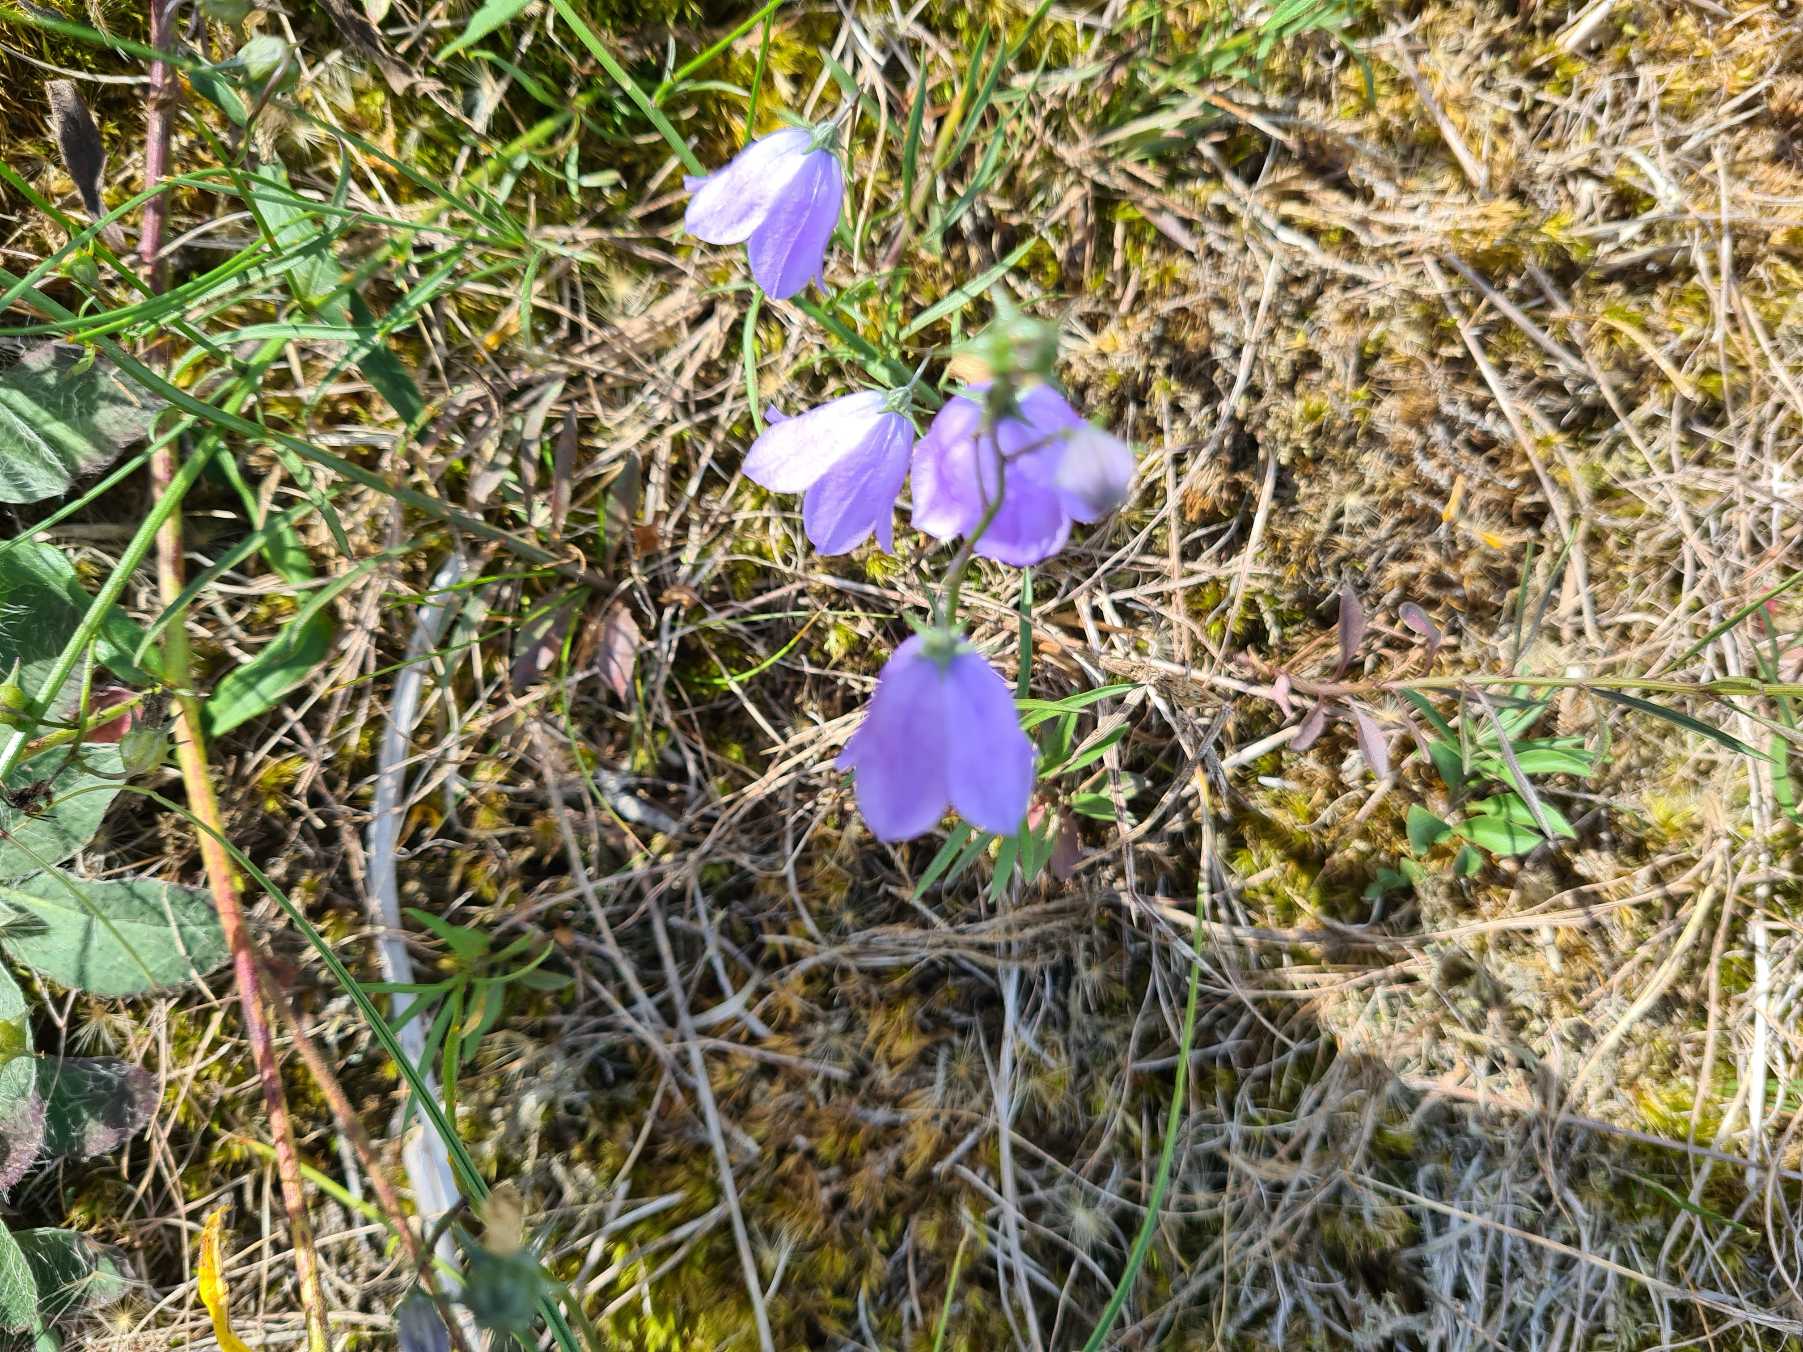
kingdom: Plantae
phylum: Tracheophyta
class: Magnoliopsida
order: Asterales
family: Campanulaceae
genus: Campanula
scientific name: Campanula rotundifolia
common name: Liden klokke
